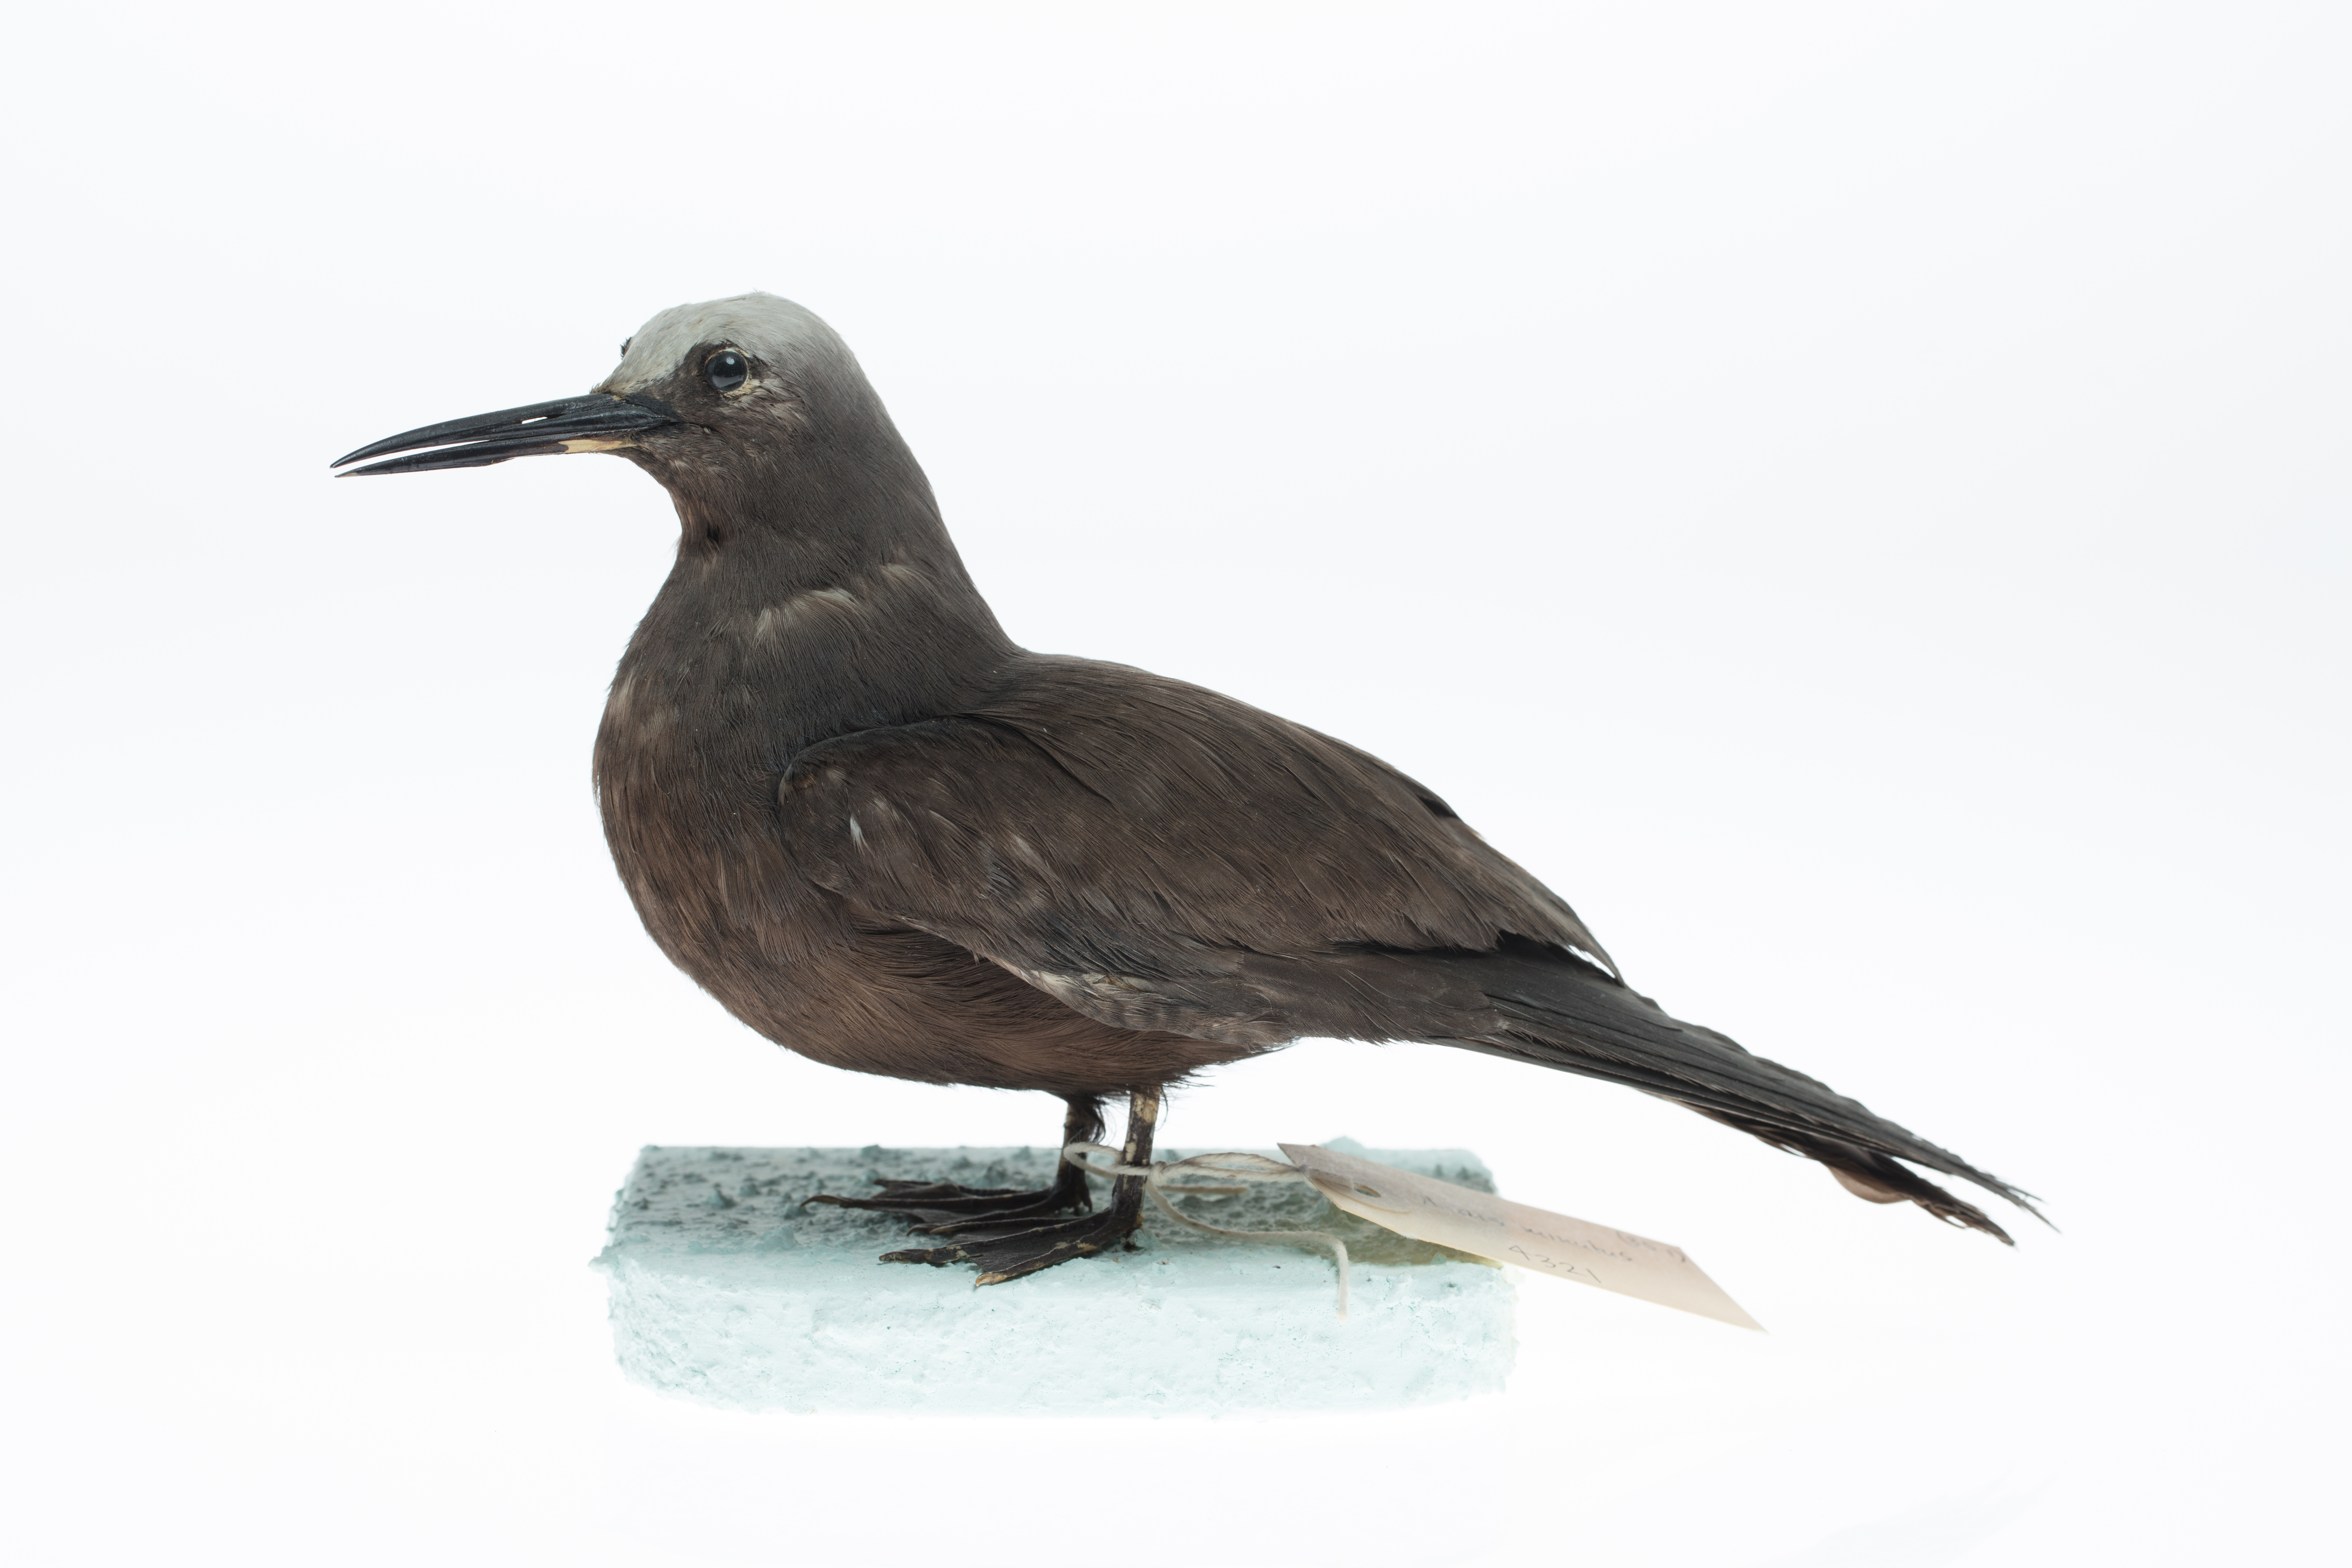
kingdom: Animalia
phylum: Chordata
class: Aves
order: Charadriiformes
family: Laridae
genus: Anous
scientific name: Anous minutus
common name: Black noddy
